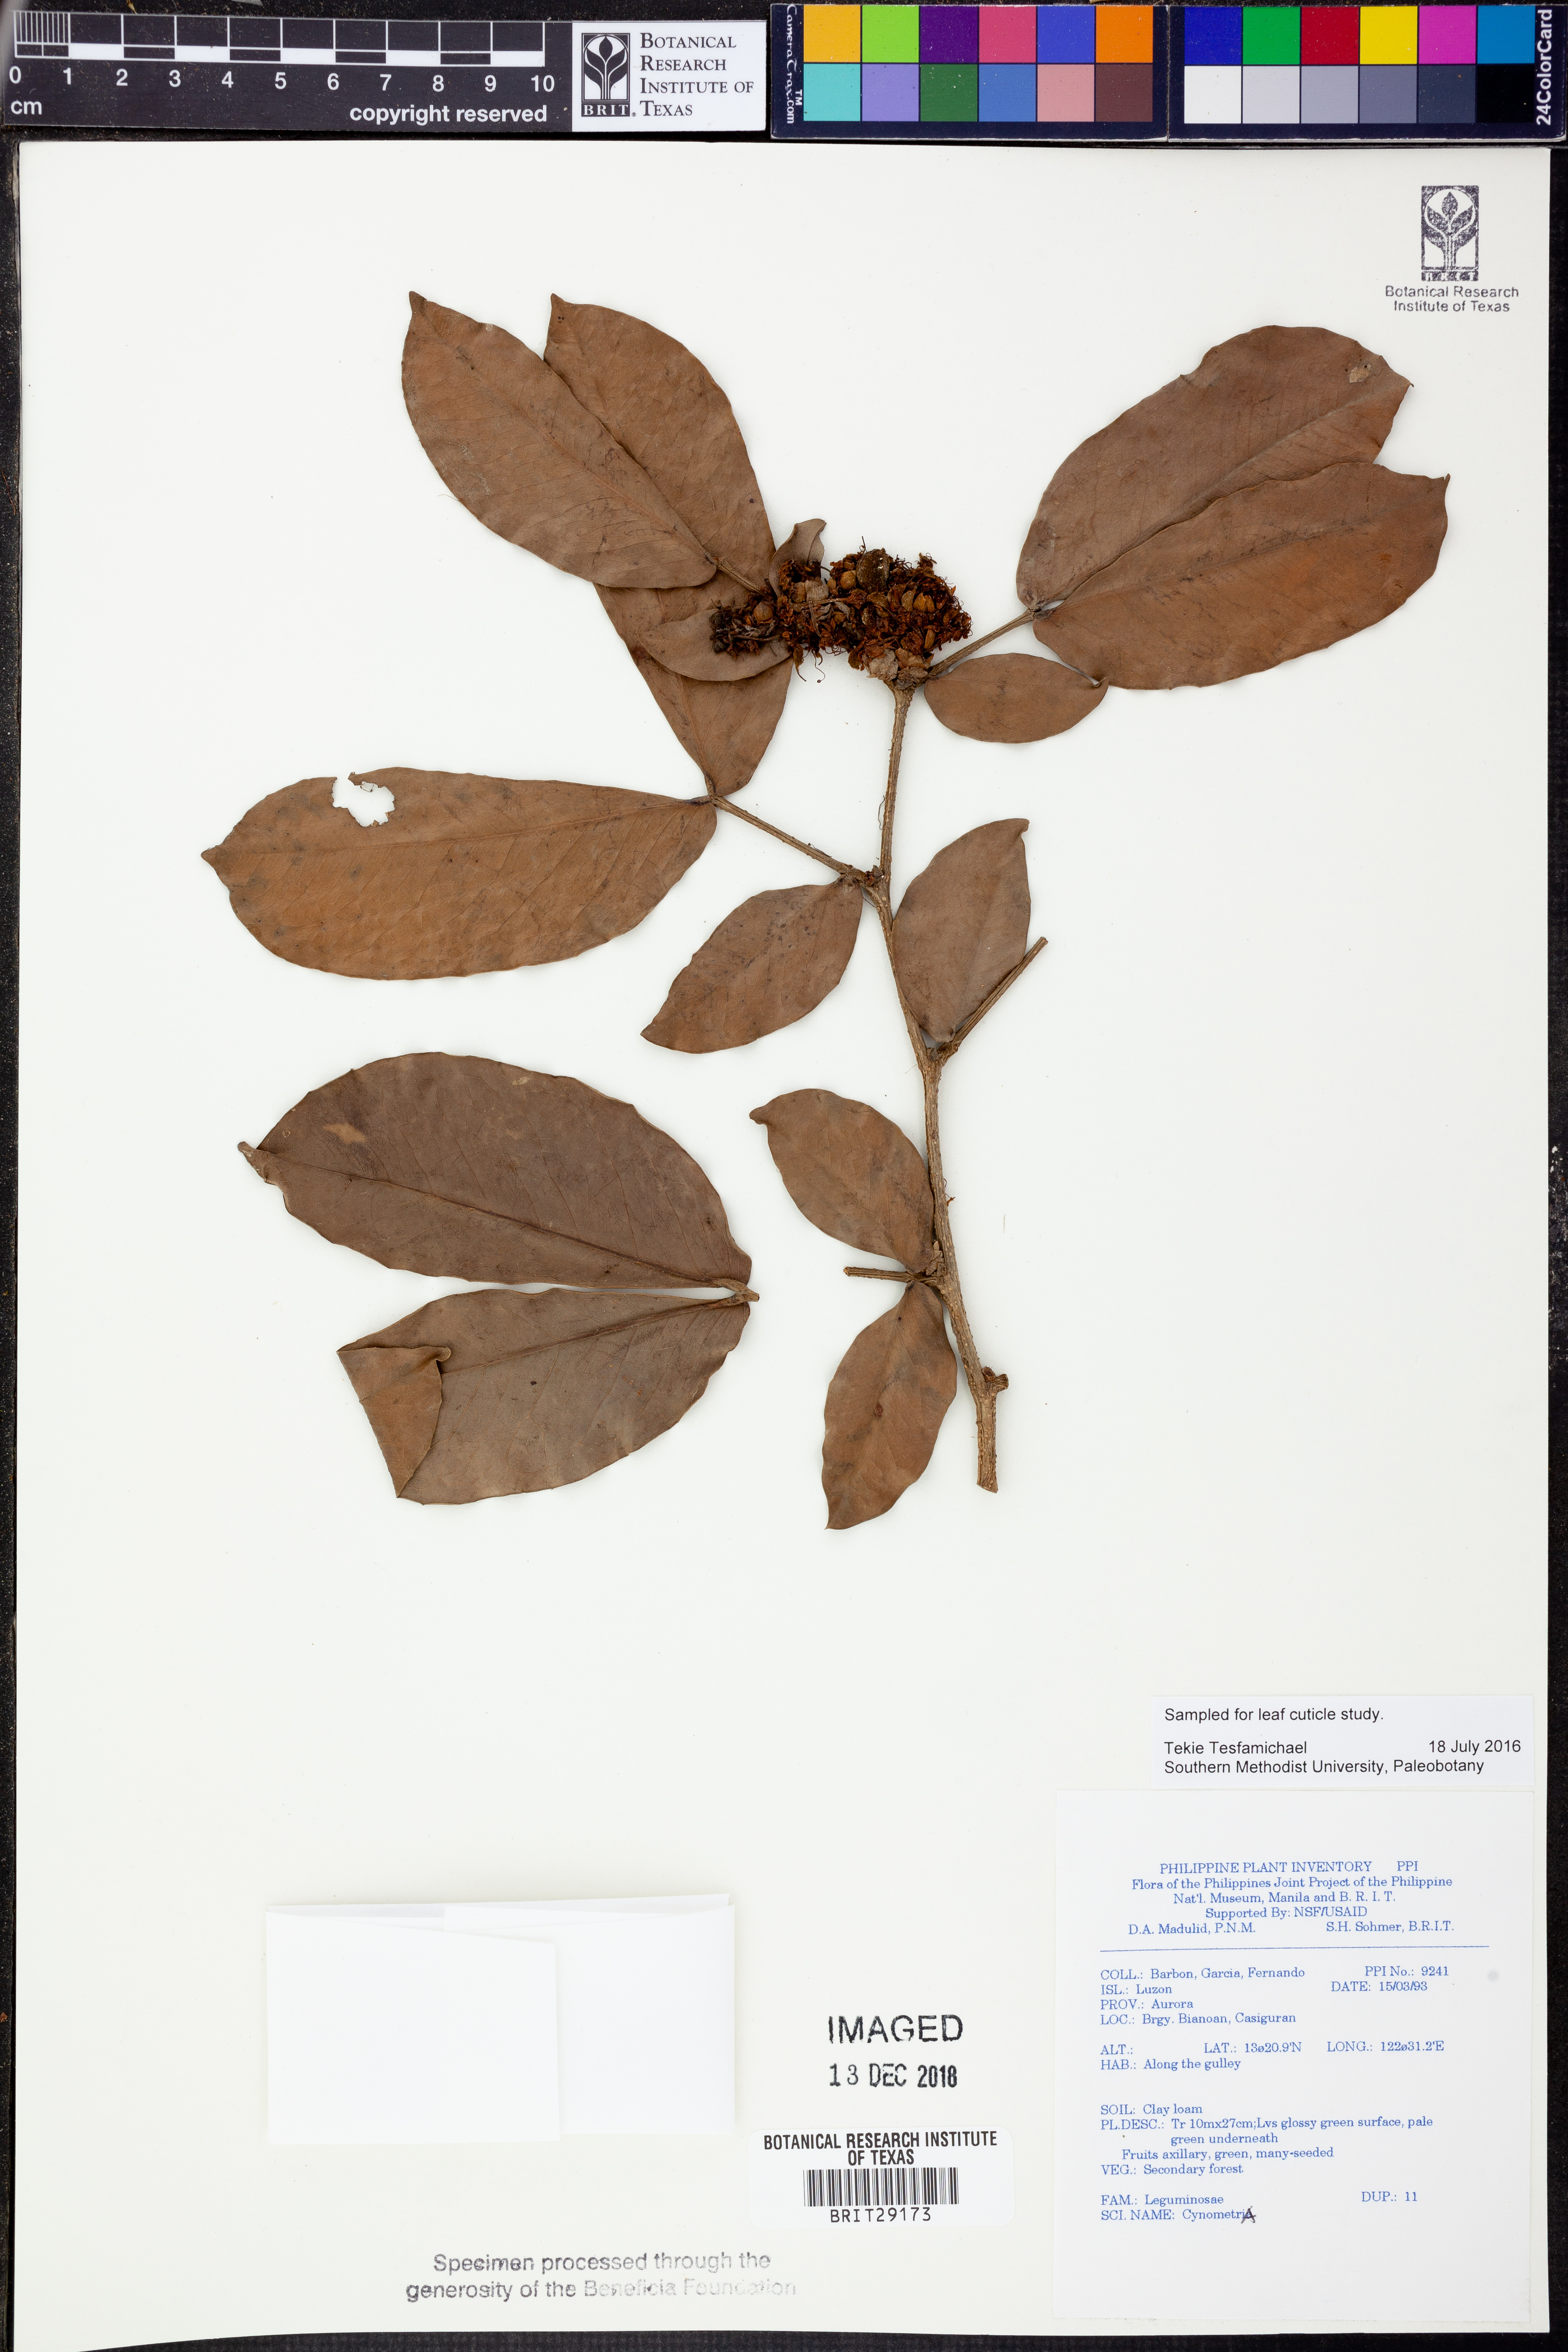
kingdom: Plantae
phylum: Tracheophyta
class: Magnoliopsida
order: Fabales
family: Fabaceae
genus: Cynometra
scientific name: Cynometra
